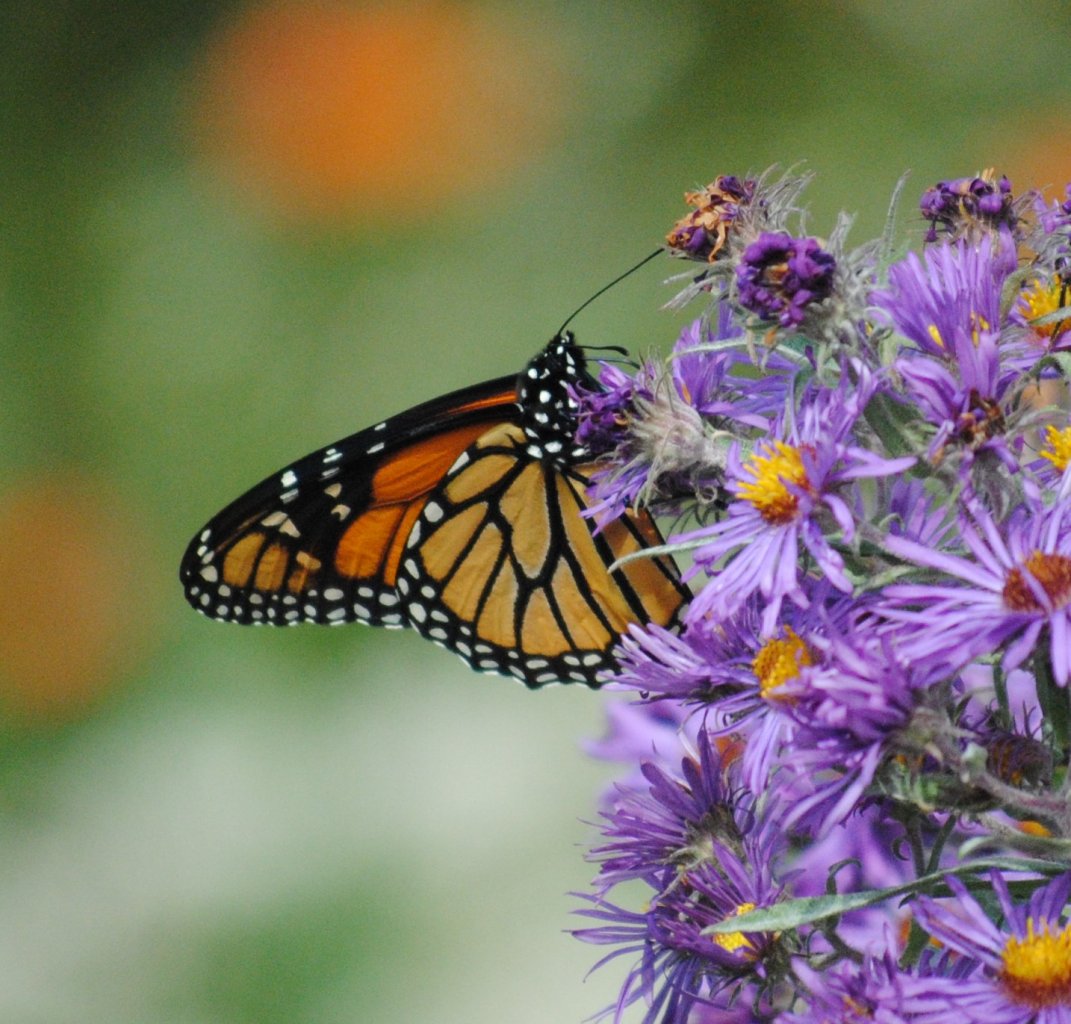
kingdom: Animalia
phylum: Arthropoda
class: Insecta
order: Lepidoptera
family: Nymphalidae
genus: Danaus
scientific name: Danaus plexippus
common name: Monarch
